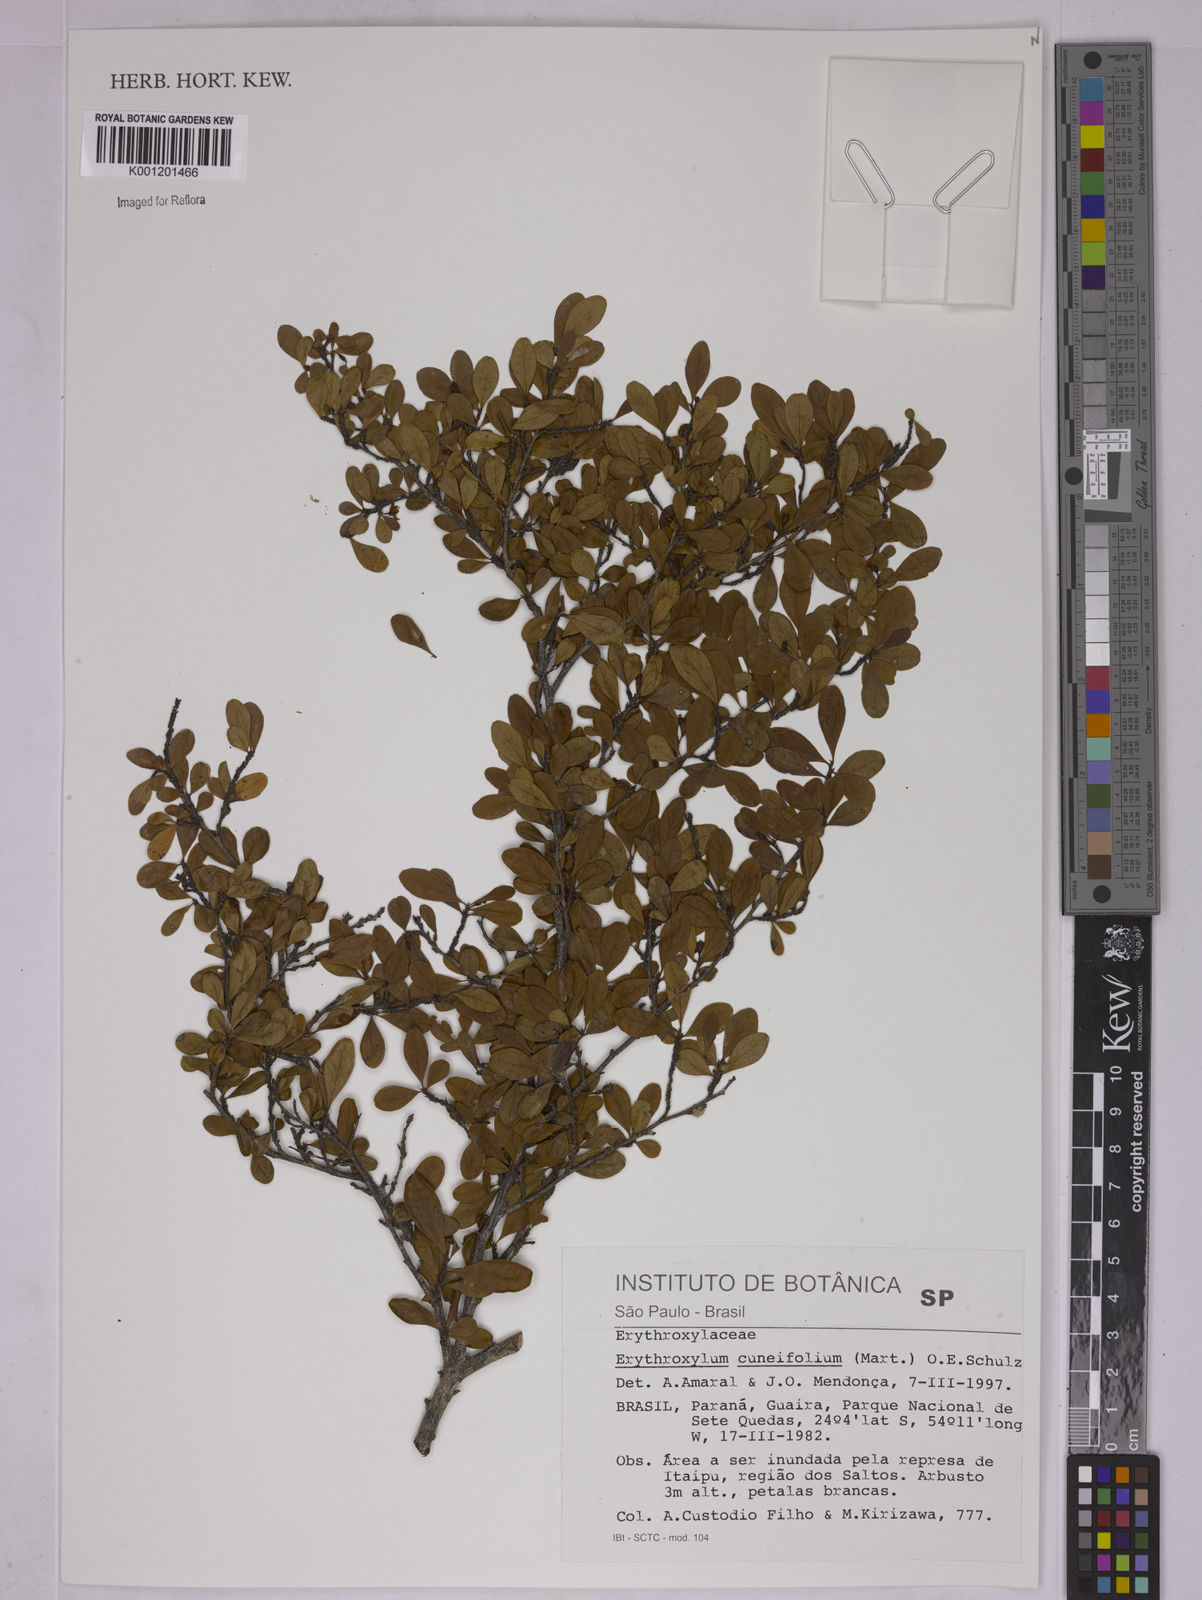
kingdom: Plantae
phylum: Tracheophyta
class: Magnoliopsida
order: Malpighiales
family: Erythroxylaceae
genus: Erythroxylum
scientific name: Erythroxylum cuneifolium
